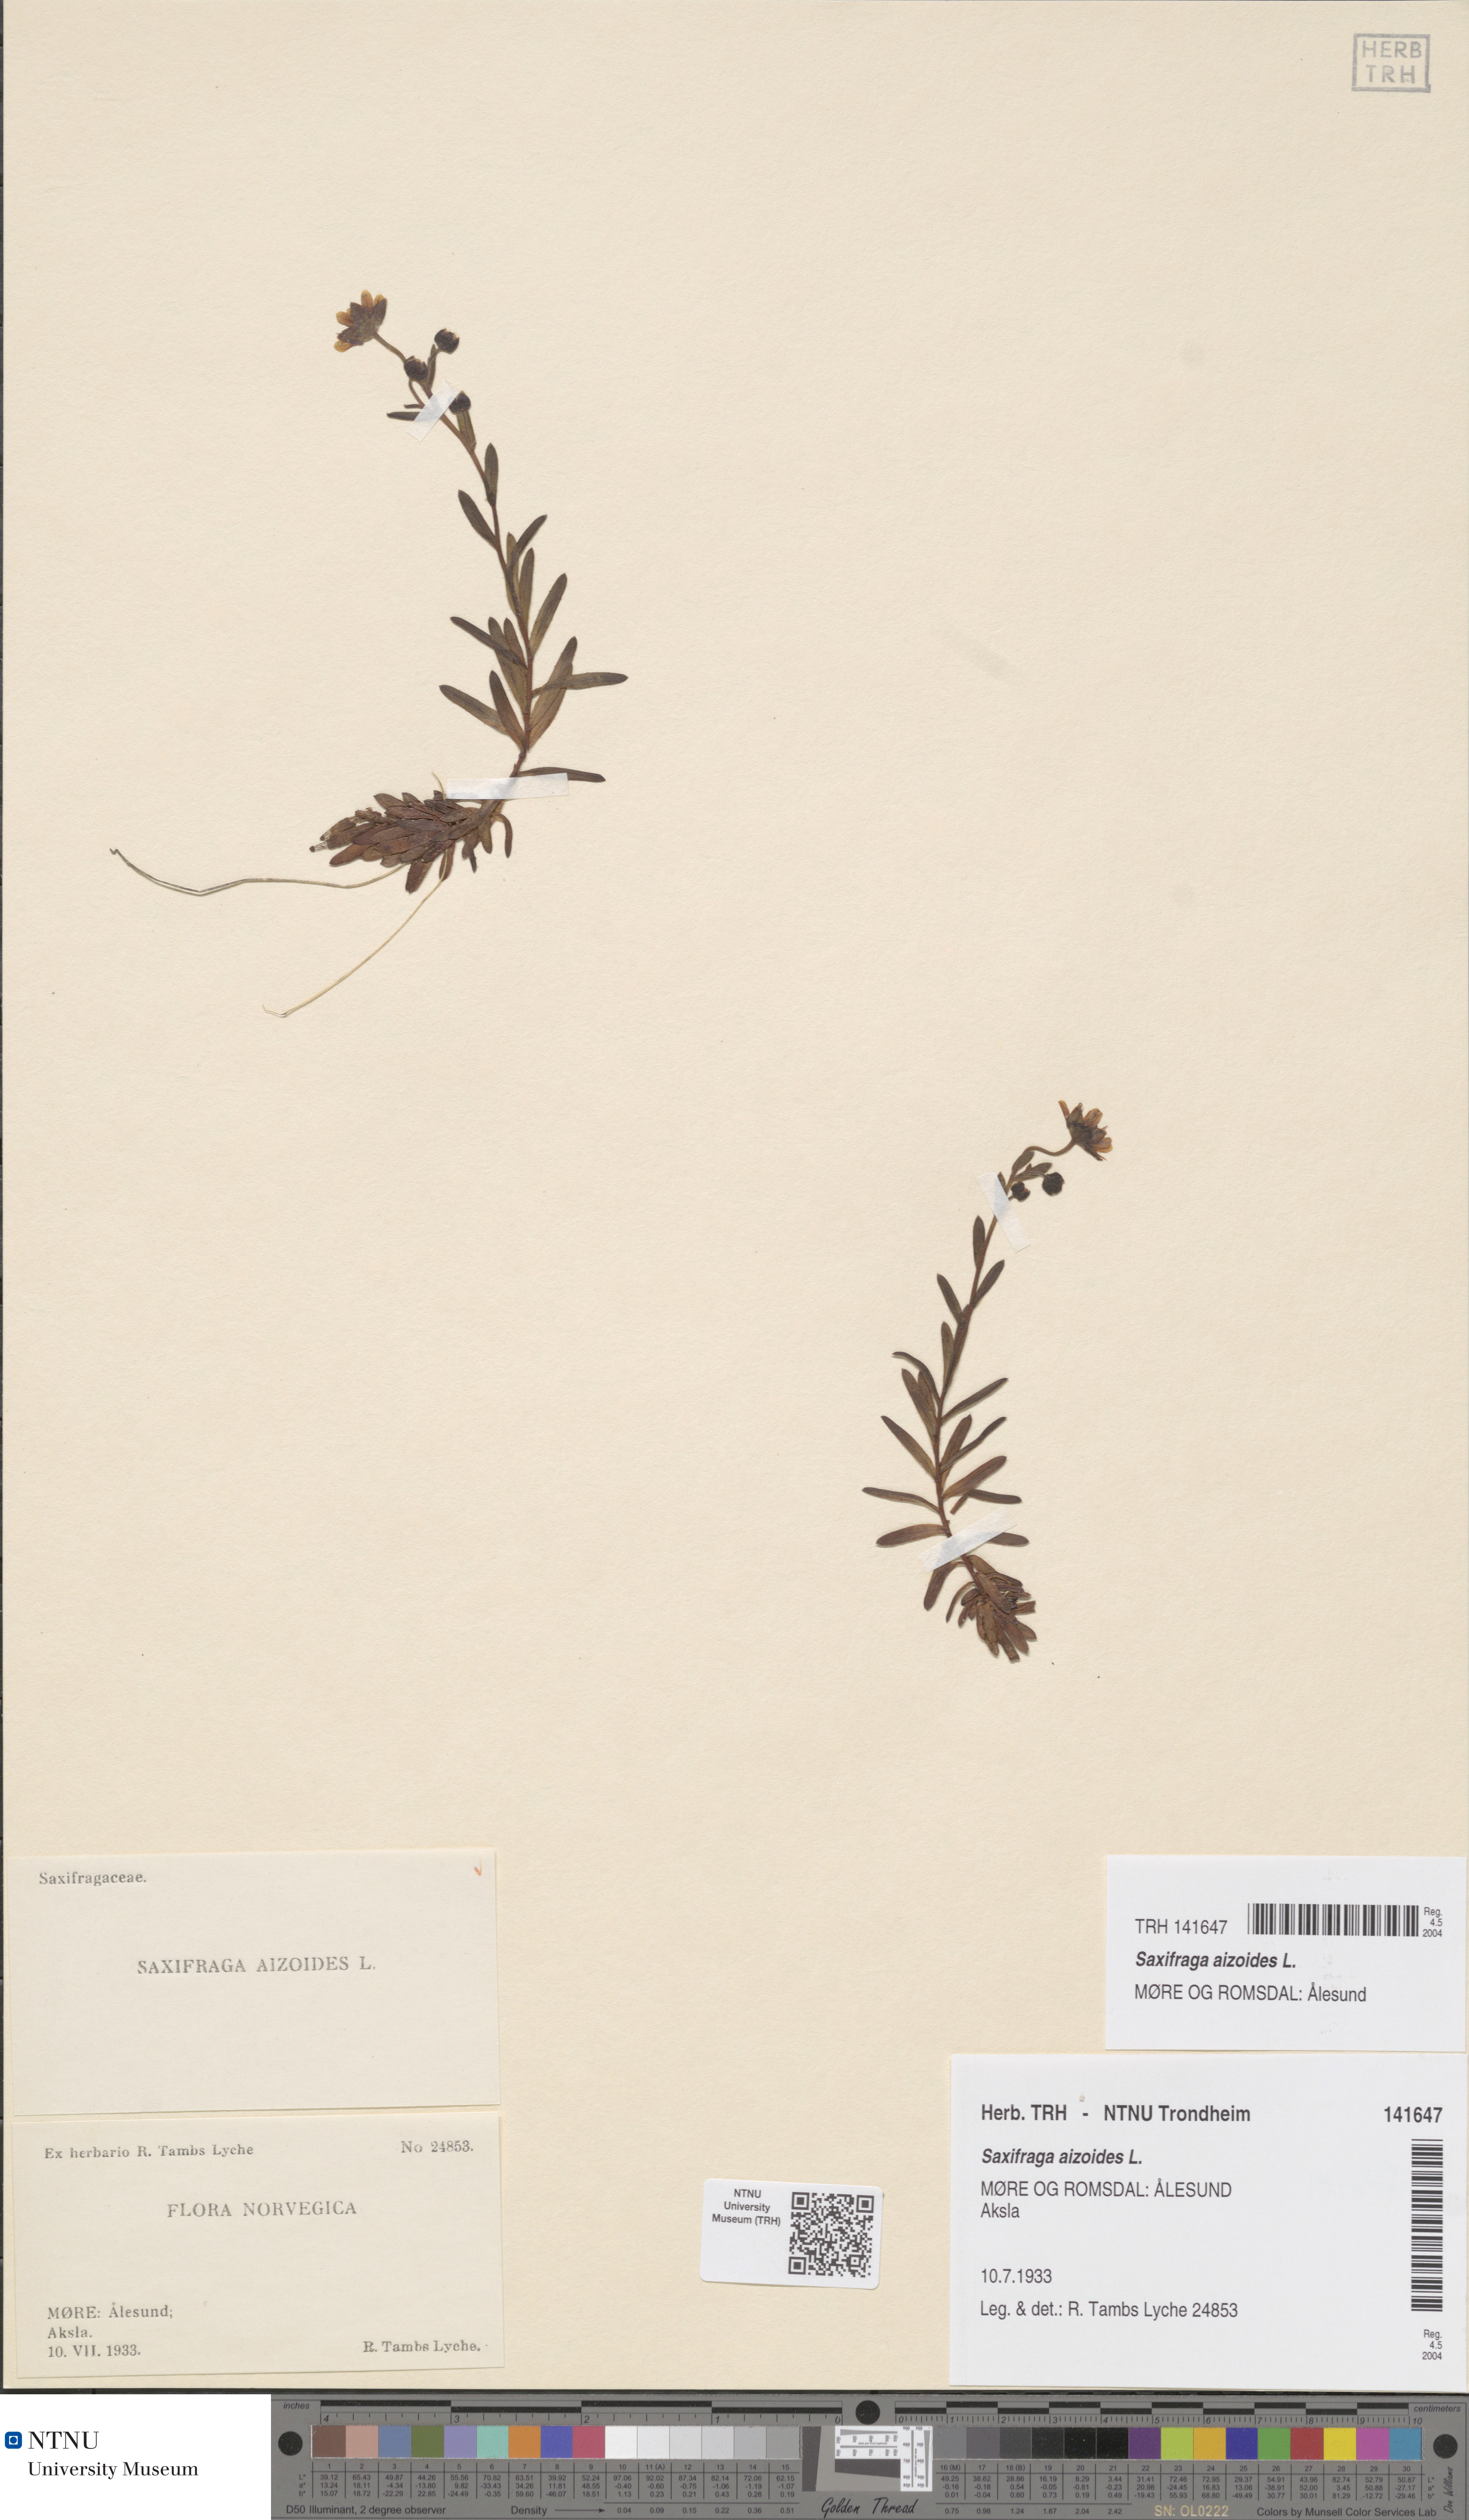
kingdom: Plantae
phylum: Tracheophyta
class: Magnoliopsida
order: Saxifragales
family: Saxifragaceae
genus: Saxifraga
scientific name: Saxifraga aizoides
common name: Yellow mountain saxifrage
